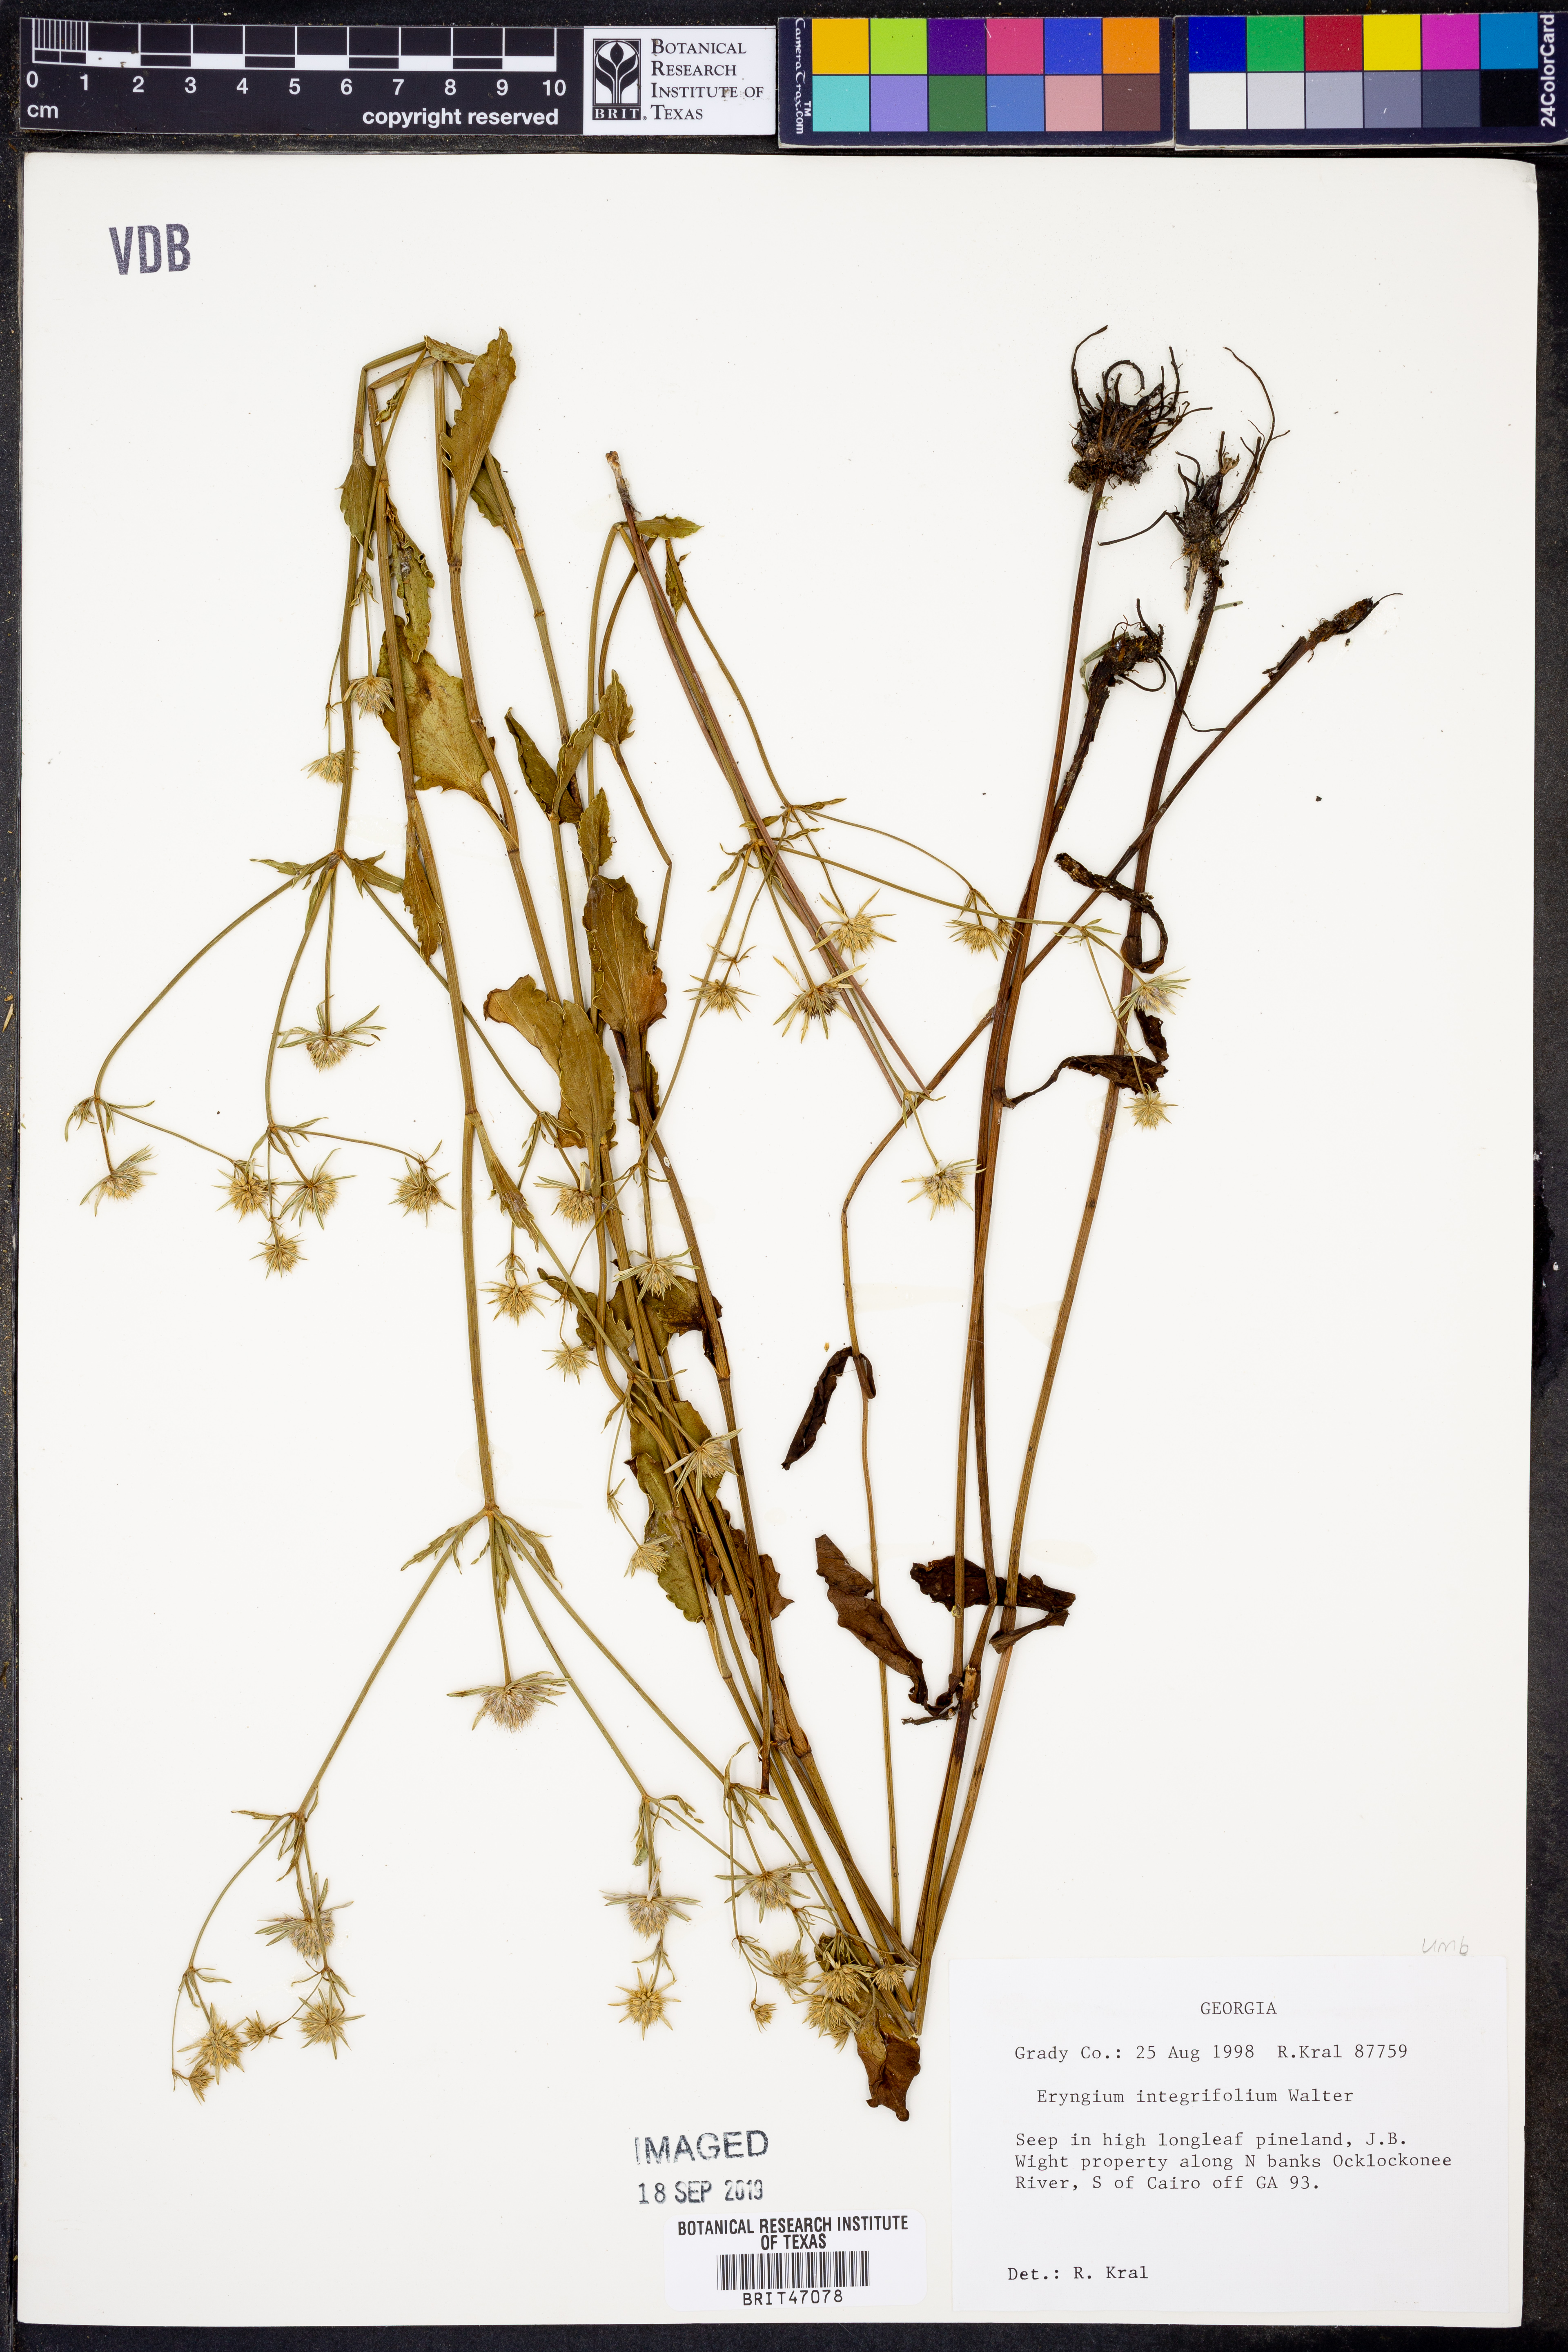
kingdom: Plantae
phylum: Tracheophyta
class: Magnoliopsida
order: Apiales
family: Apiaceae
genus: Eryngium
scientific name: Eryngium integrifolium
